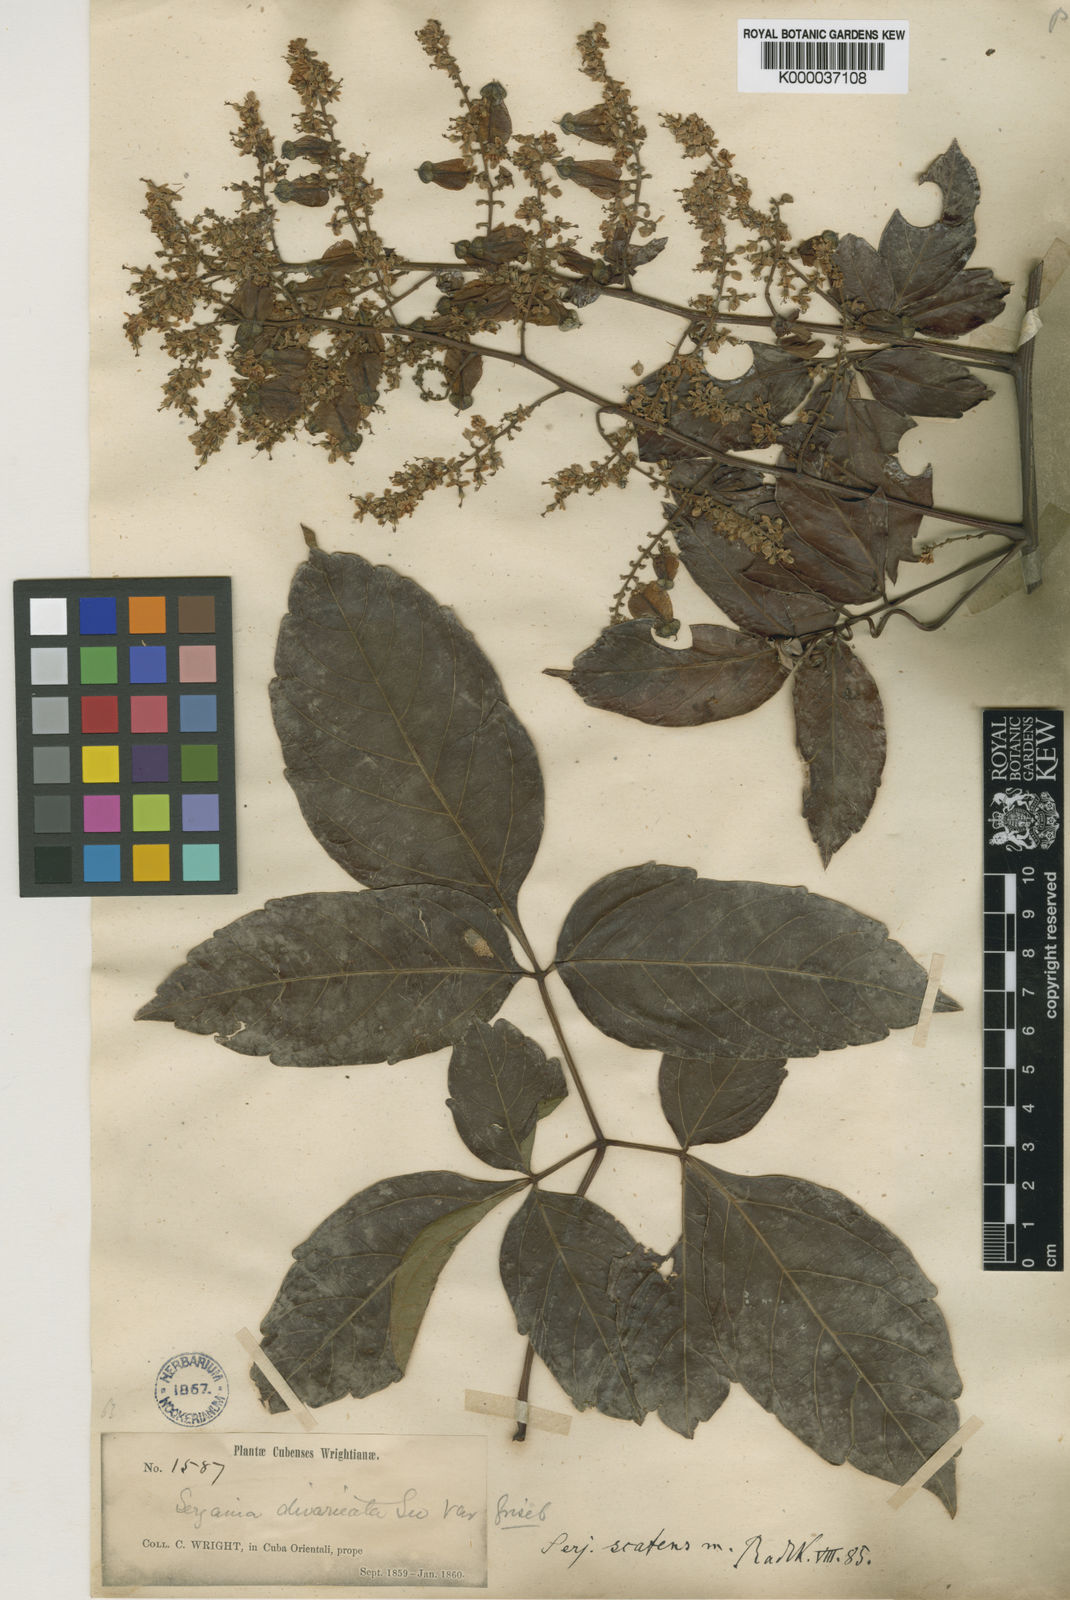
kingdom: Plantae
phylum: Tracheophyta
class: Magnoliopsida
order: Sapindales
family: Sapindaceae
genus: Serjania
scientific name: Serjania atrolineata
